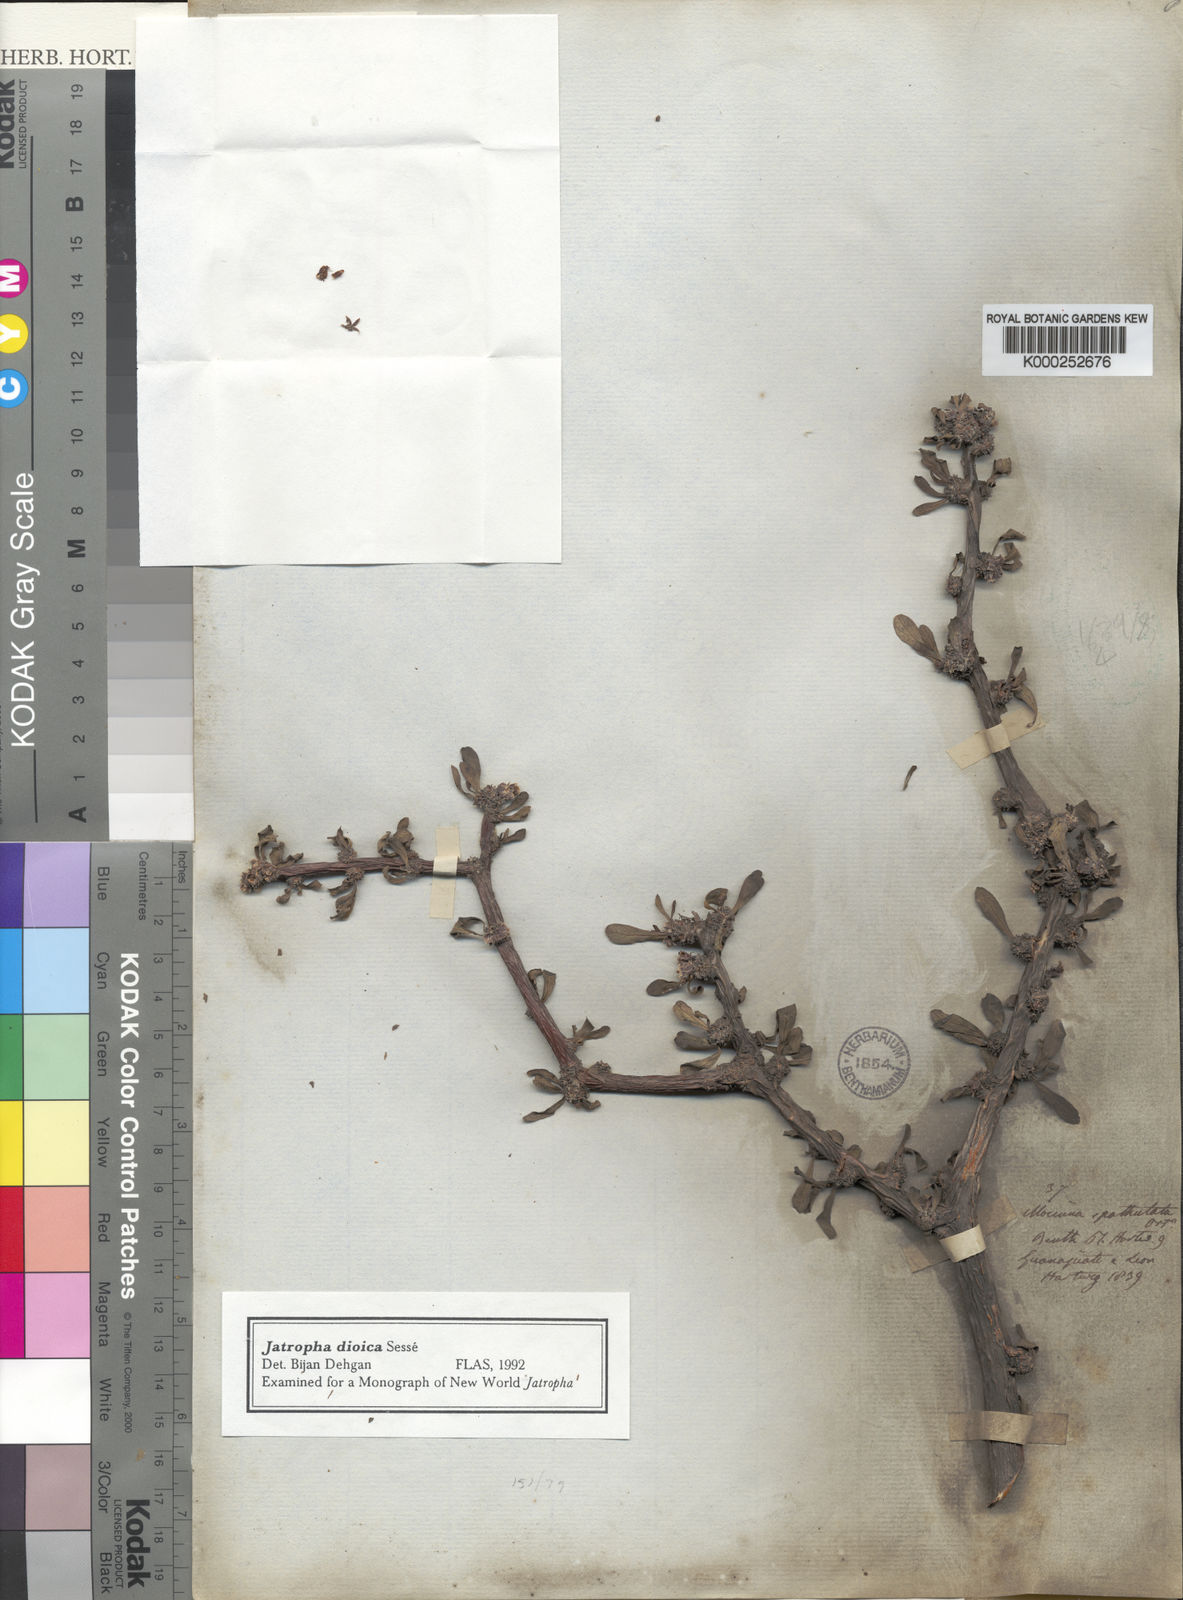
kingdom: Plantae
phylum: Tracheophyta
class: Magnoliopsida
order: Malpighiales
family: Euphorbiaceae
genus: Jatropha
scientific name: Jatropha
